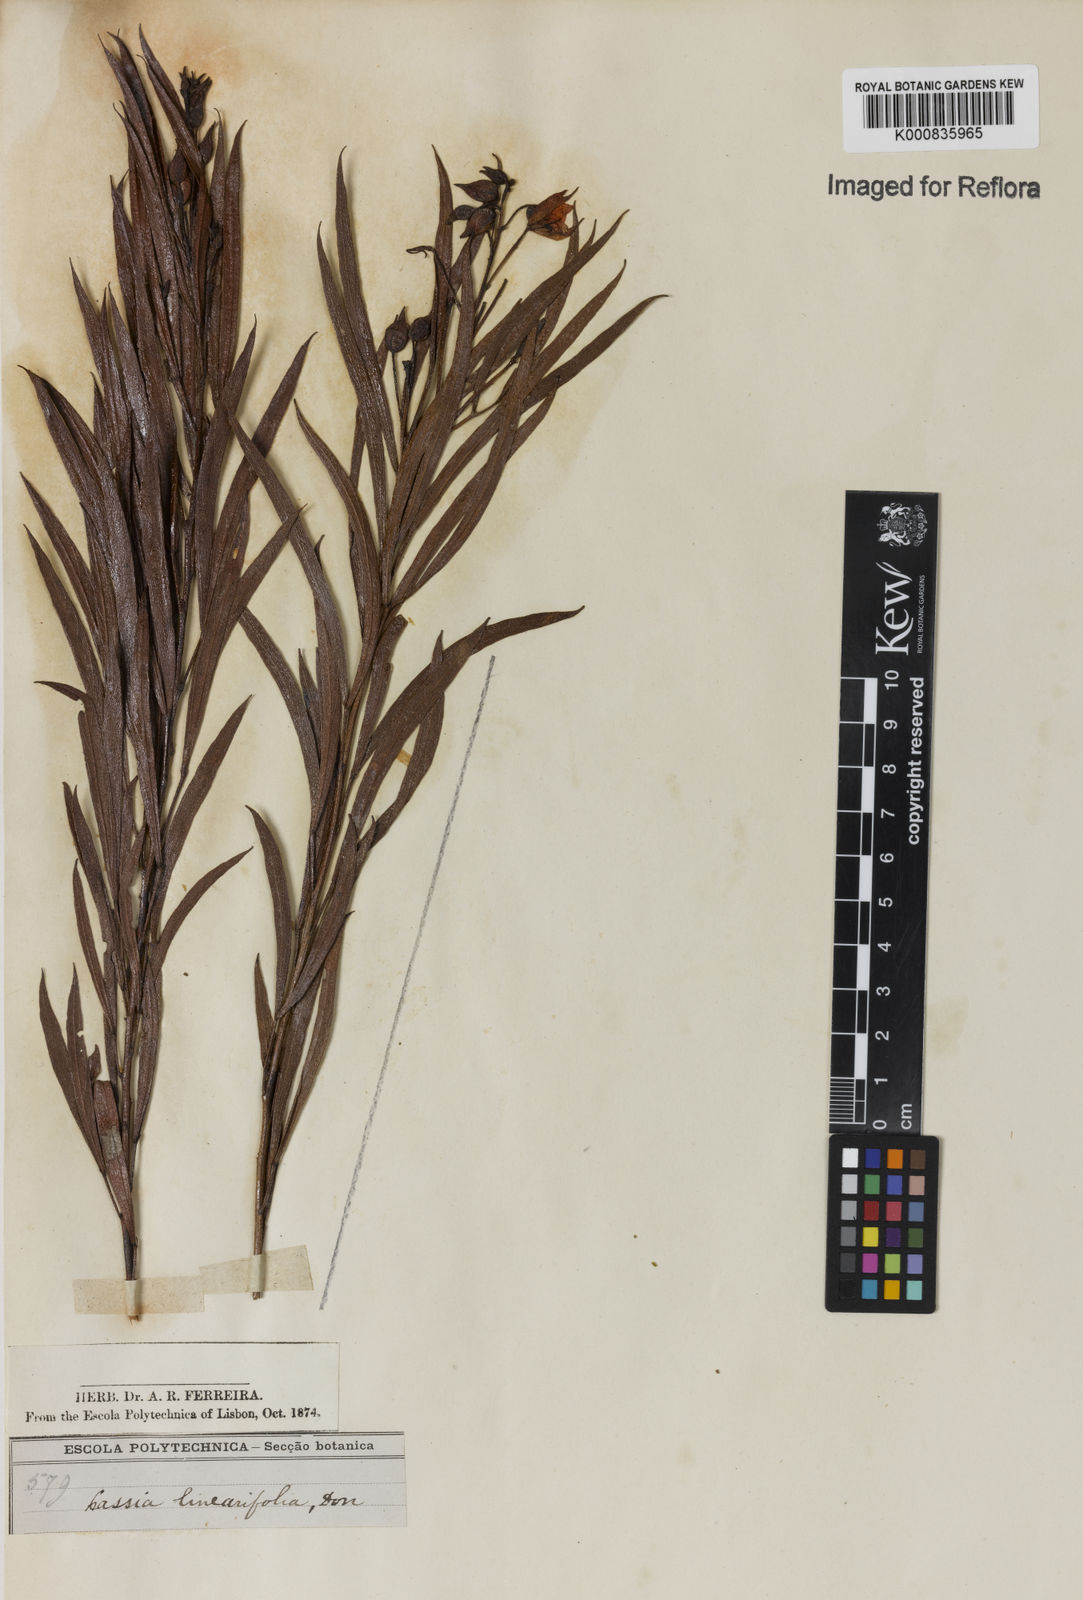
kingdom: Plantae
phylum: Tracheophyta
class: Magnoliopsida
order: Fabales
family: Fabaceae
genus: Chamaecrista
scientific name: Chamaecrista linearifolia
